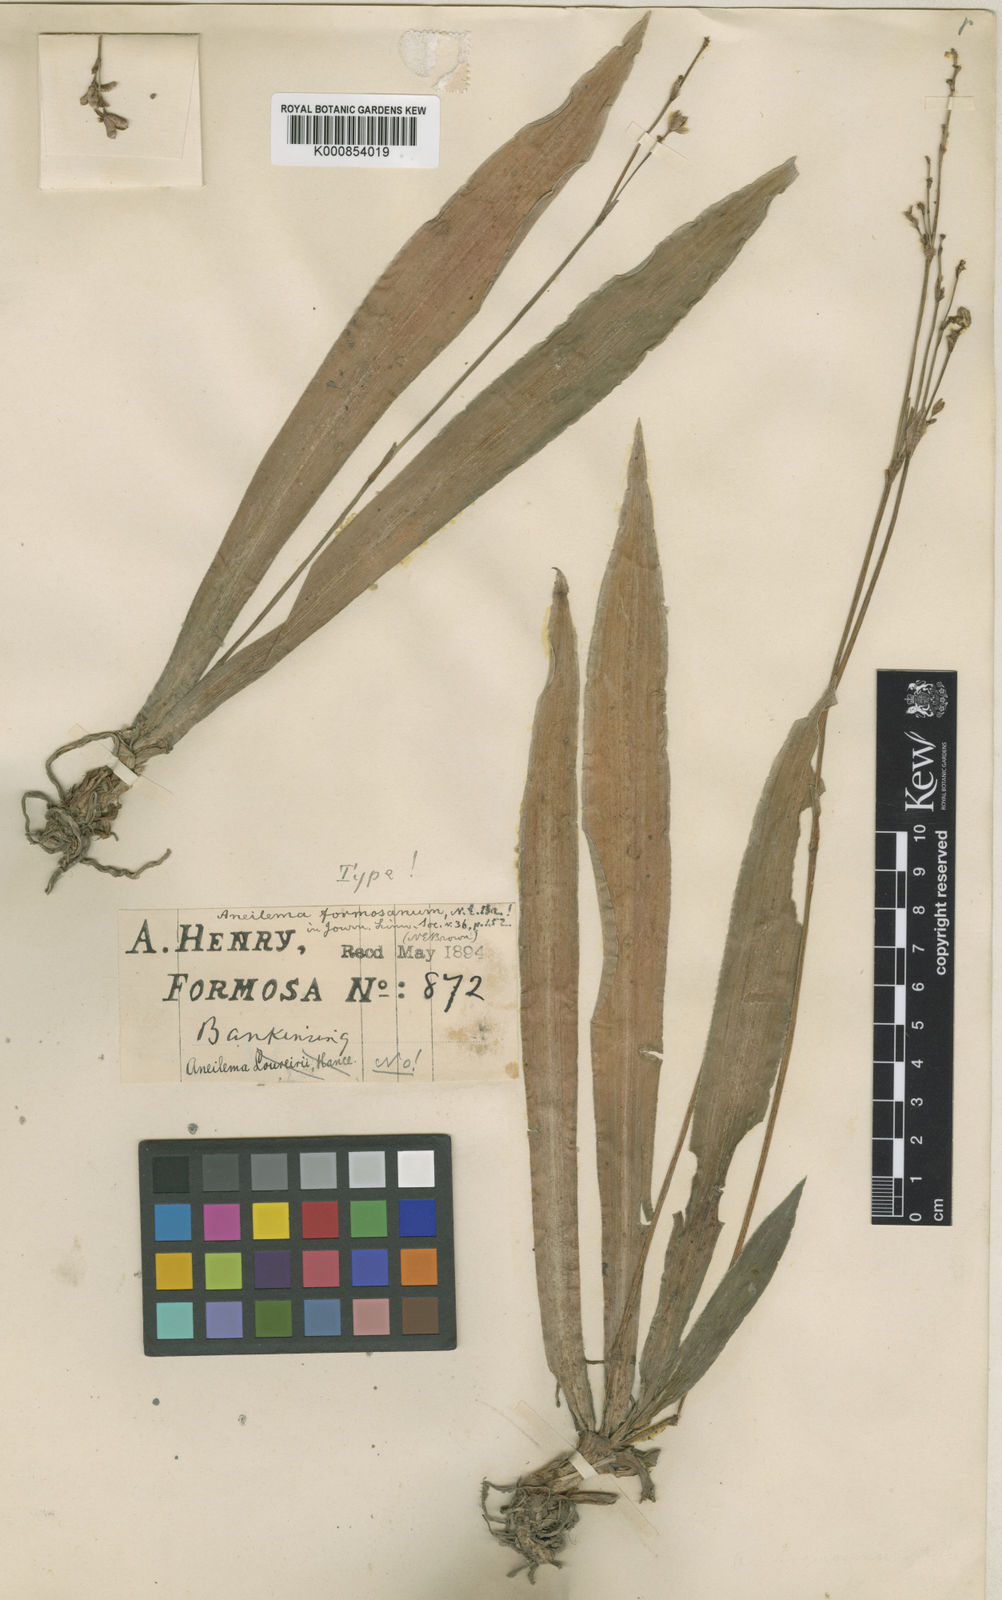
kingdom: Plantae
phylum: Tracheophyta
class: Liliopsida
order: Commelinales
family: Commelinaceae
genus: Murdannia
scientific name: Murdannia edulis
